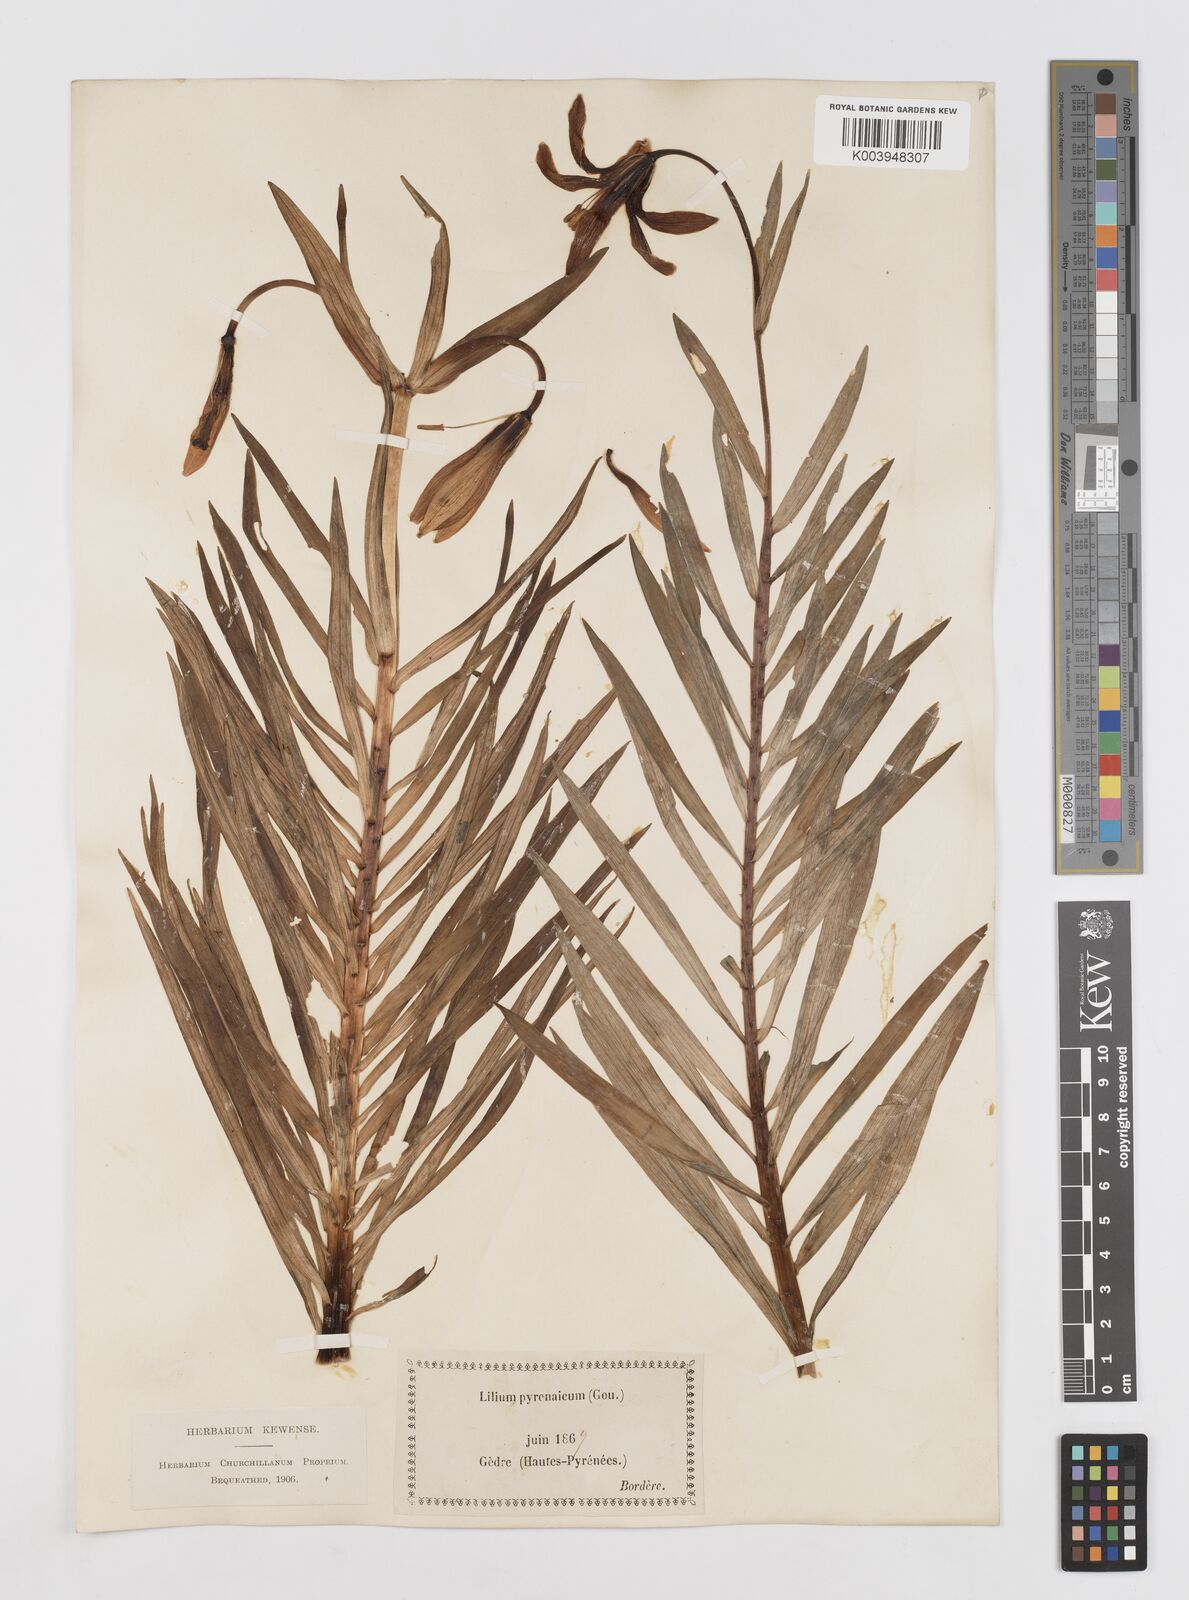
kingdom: Plantae
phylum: Tracheophyta
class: Liliopsida
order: Liliales
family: Liliaceae
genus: Lilium
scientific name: Lilium pyrenaicum
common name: Pyrenean lily
